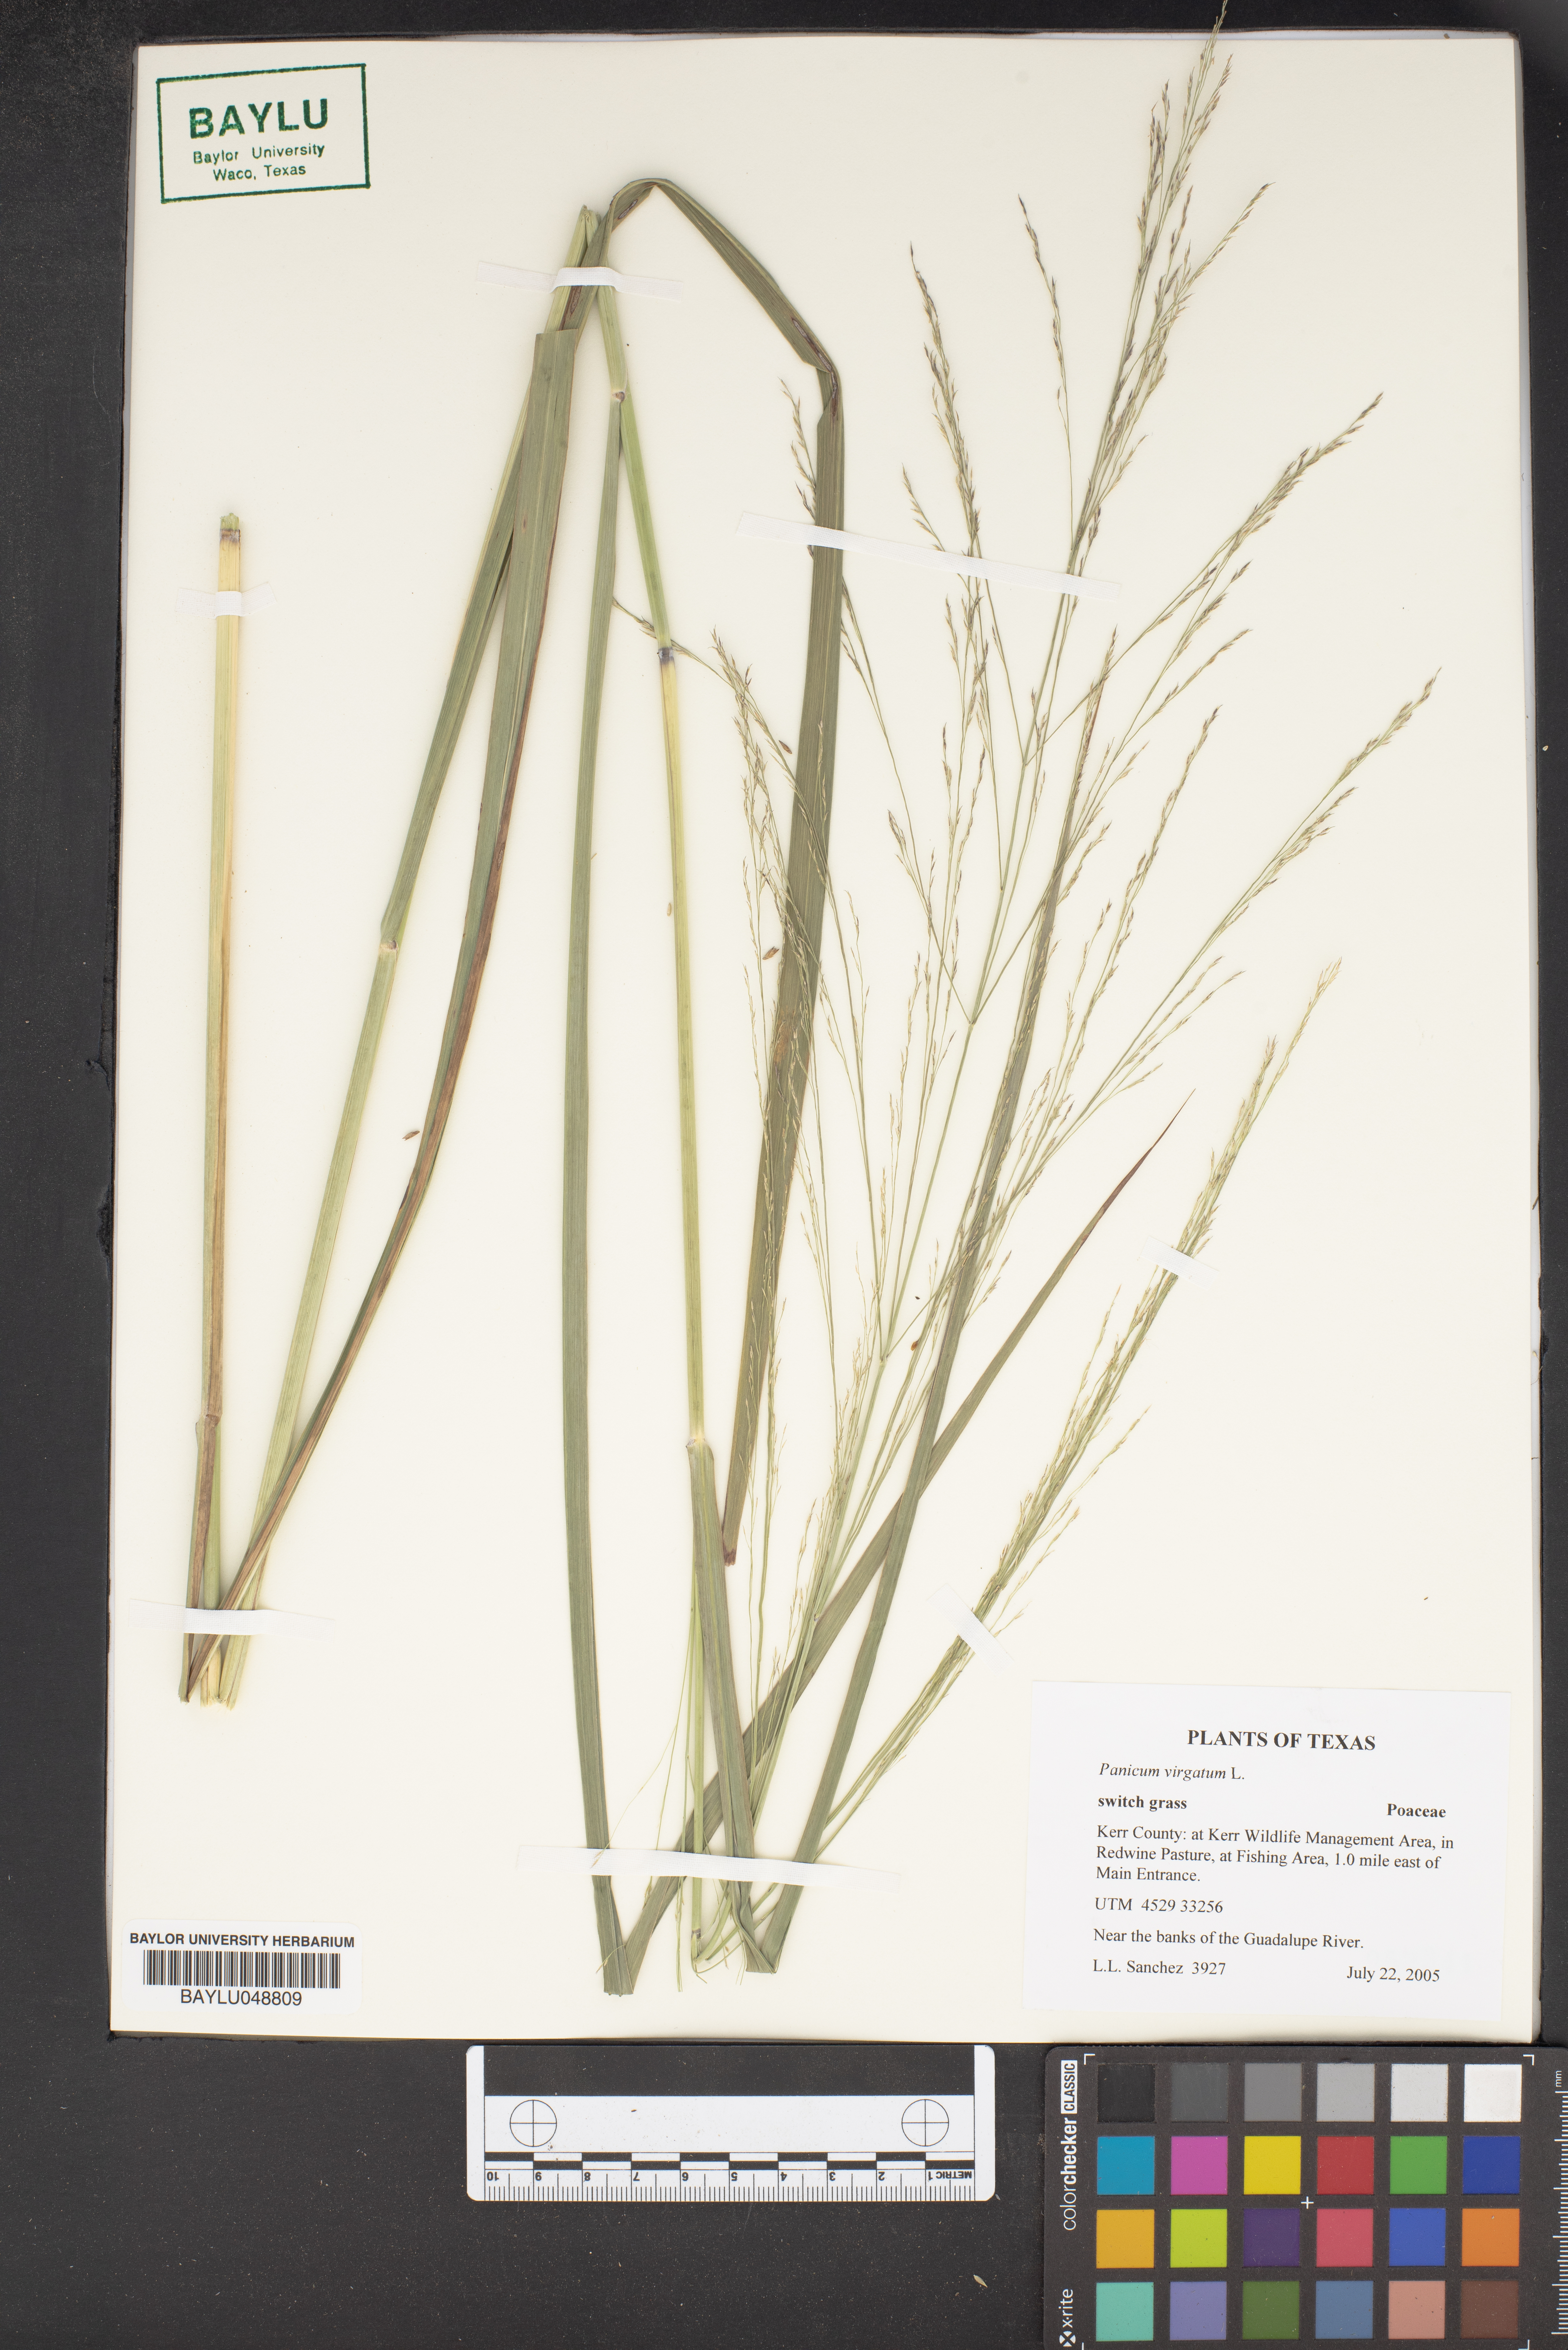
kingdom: Plantae
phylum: Tracheophyta
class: Liliopsida
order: Poales
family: Poaceae
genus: Panicum
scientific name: Panicum virgatum
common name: Switchgrass
